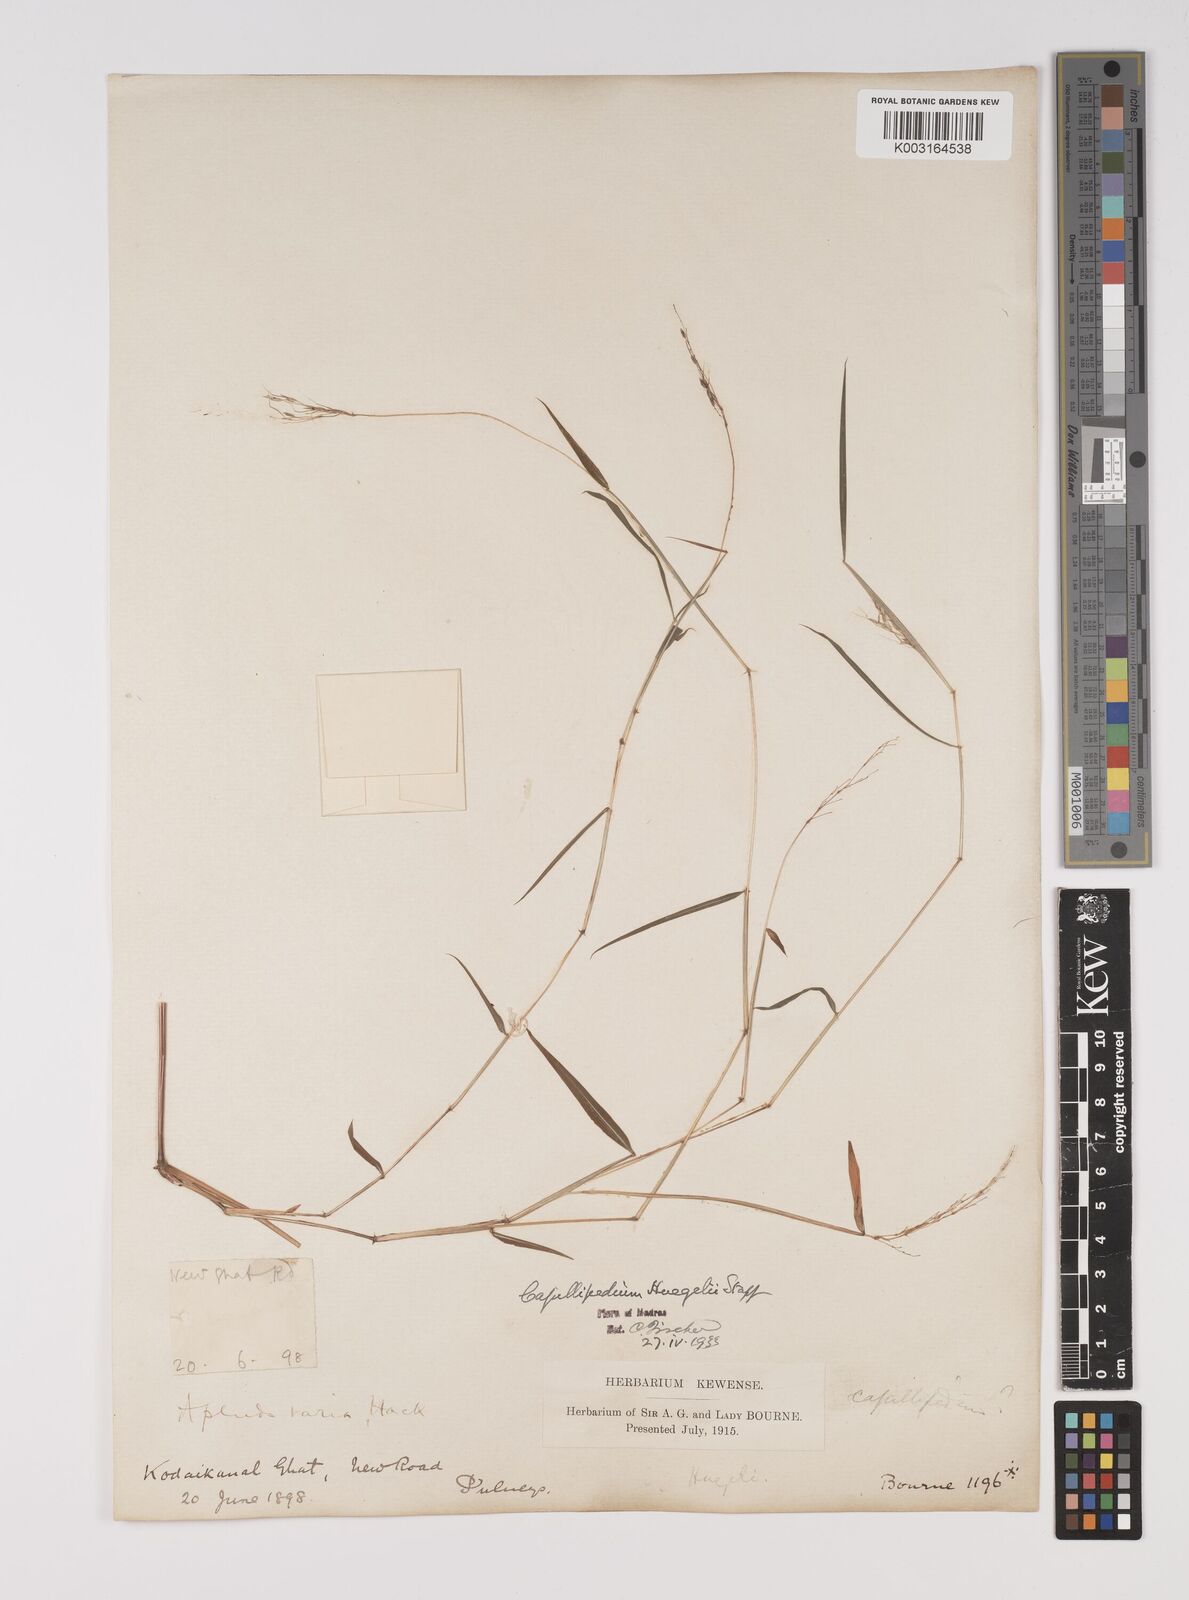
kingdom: Plantae
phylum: Tracheophyta
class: Liliopsida
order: Poales
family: Poaceae
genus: Capillipedium
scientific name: Capillipedium huegelii
